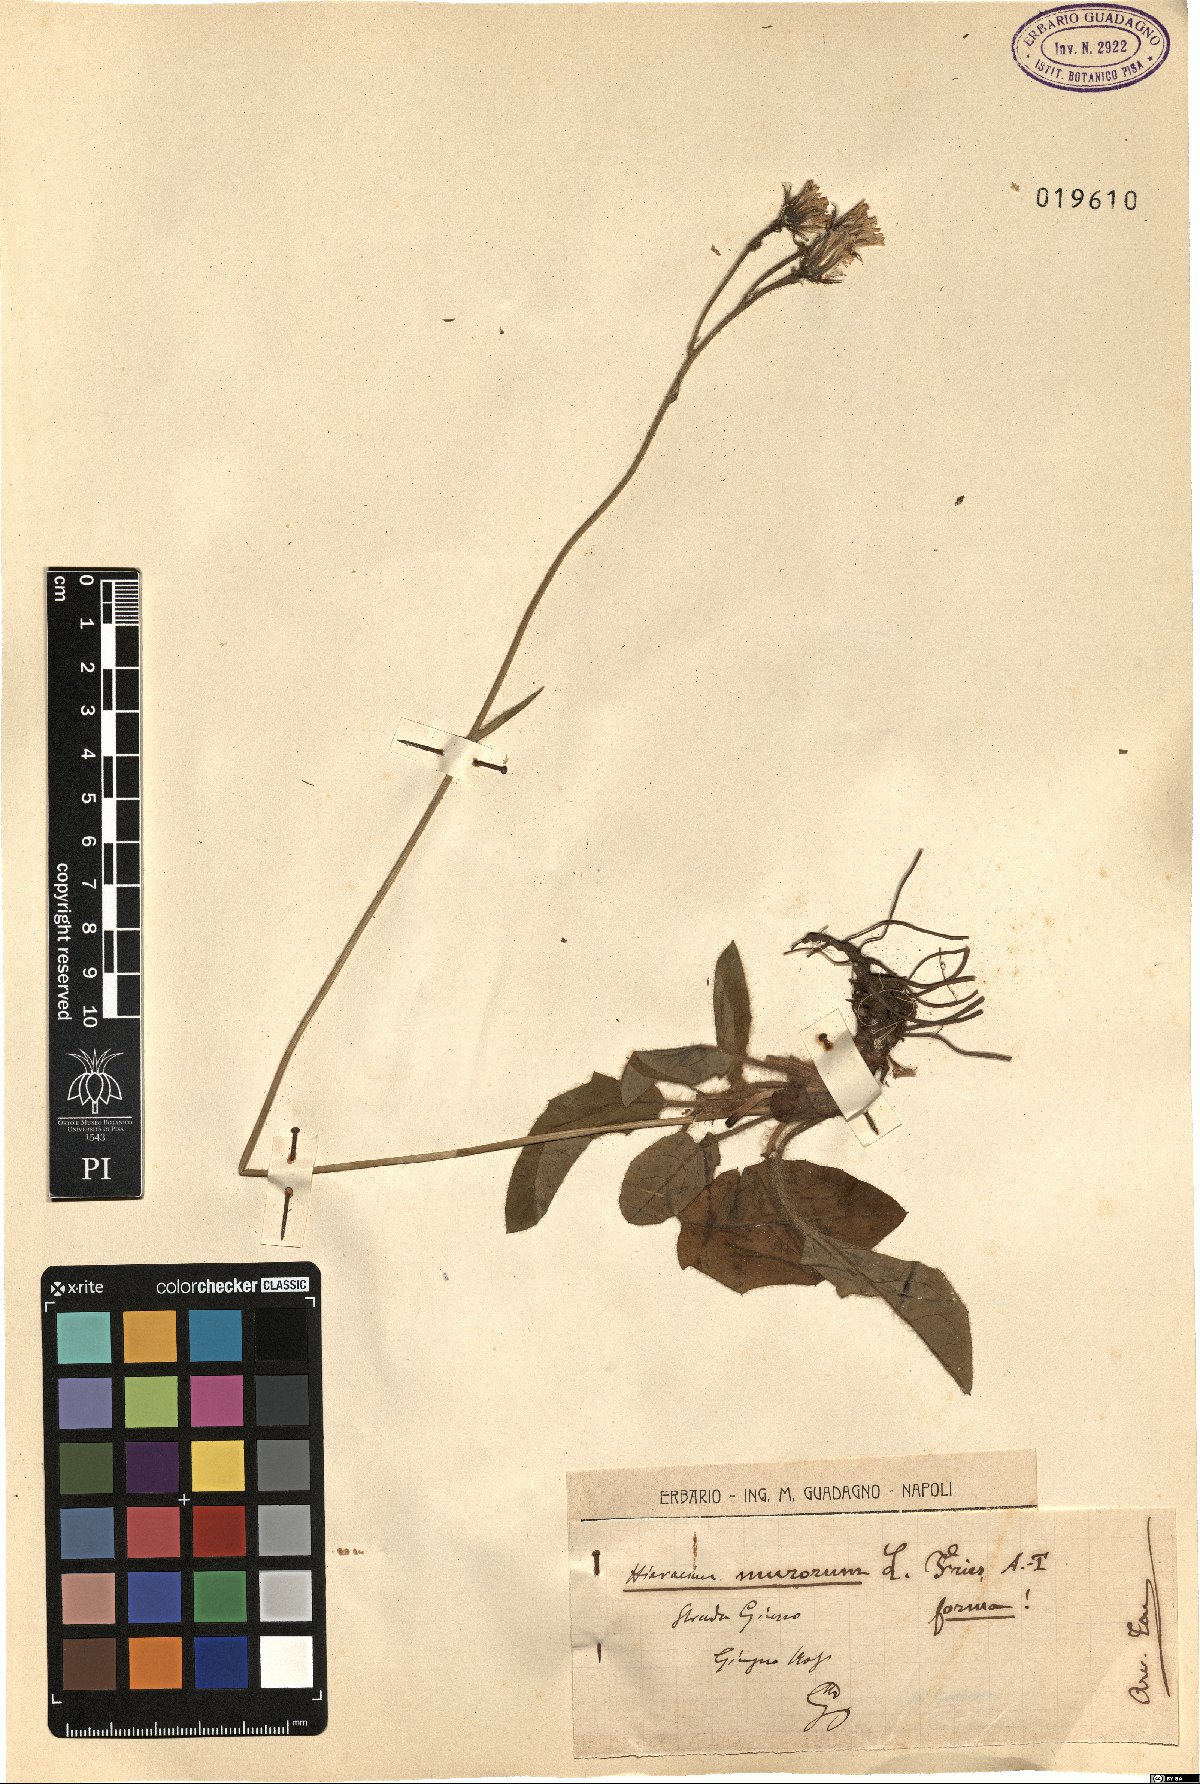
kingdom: Plantae
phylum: Tracheophyta
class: Magnoliopsida
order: Asterales
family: Asteraceae
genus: Hieracium
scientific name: Hieracium murorum
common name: Wall hawkweed
